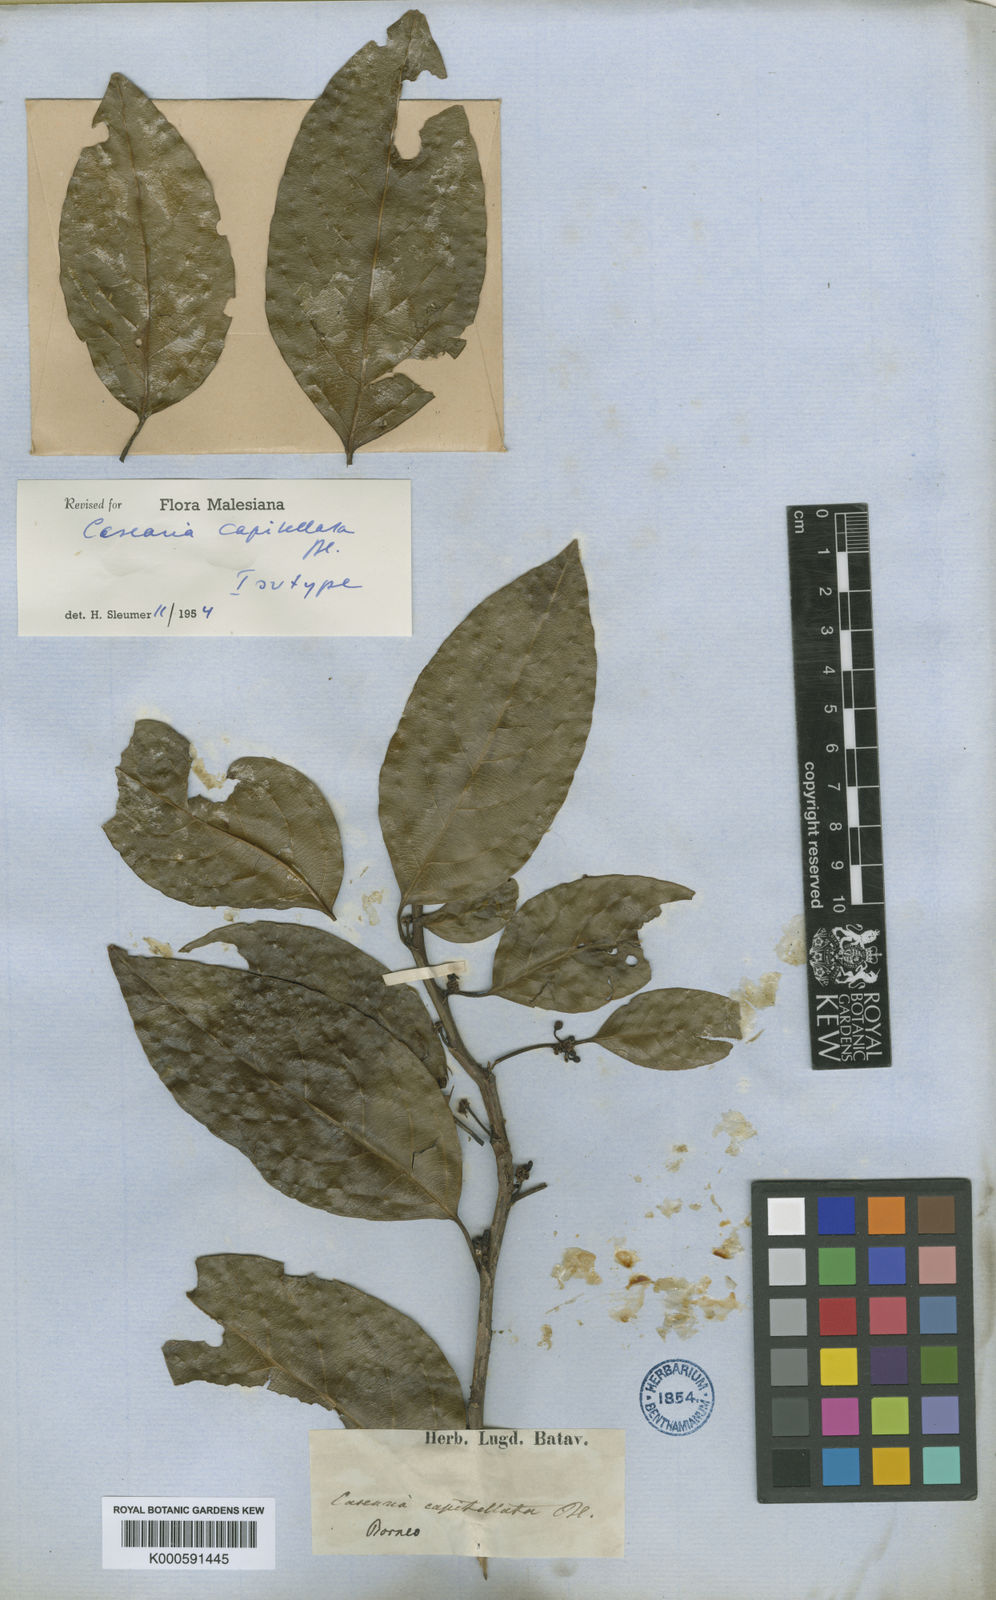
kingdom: Plantae
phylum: Tracheophyta
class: Magnoliopsida
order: Malpighiales
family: Salicaceae
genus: Casearia
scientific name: Casearia capitellata
